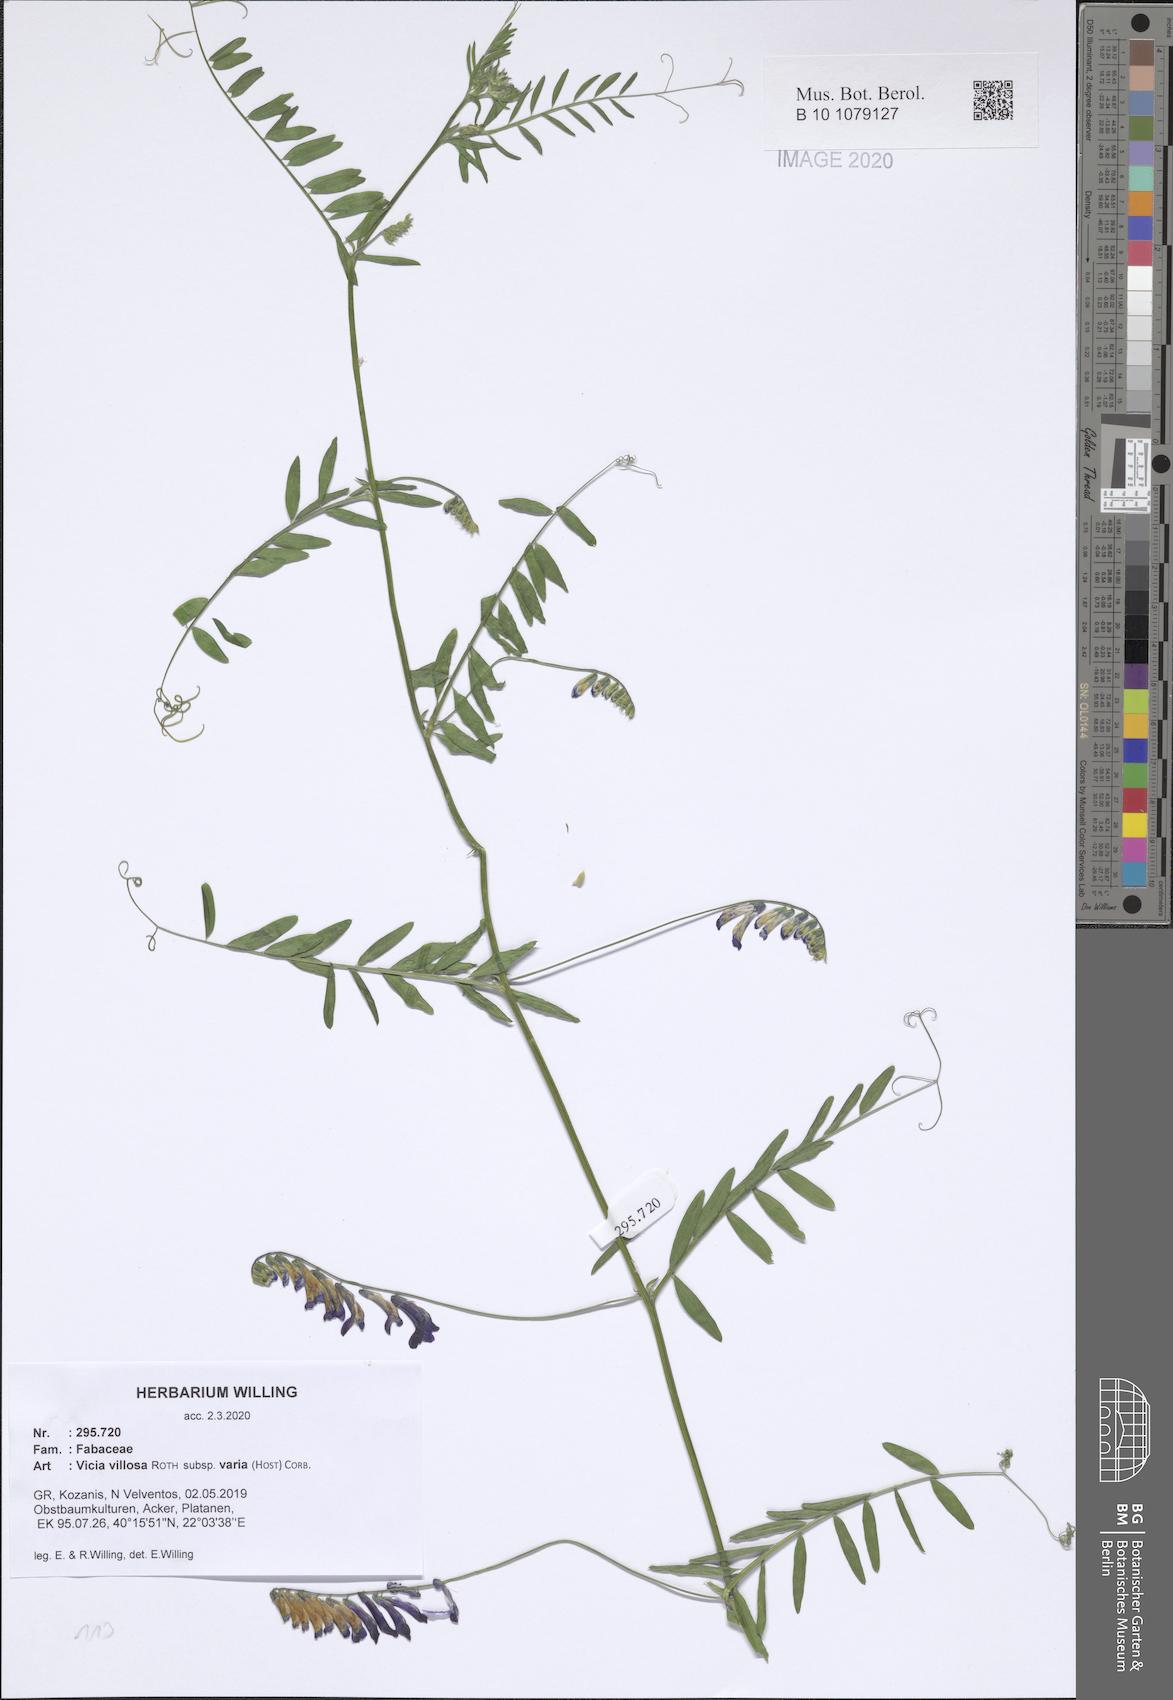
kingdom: Plantae
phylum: Tracheophyta
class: Magnoliopsida
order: Fabales
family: Fabaceae
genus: Vicia
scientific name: Vicia villosa
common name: Fodder vetch
